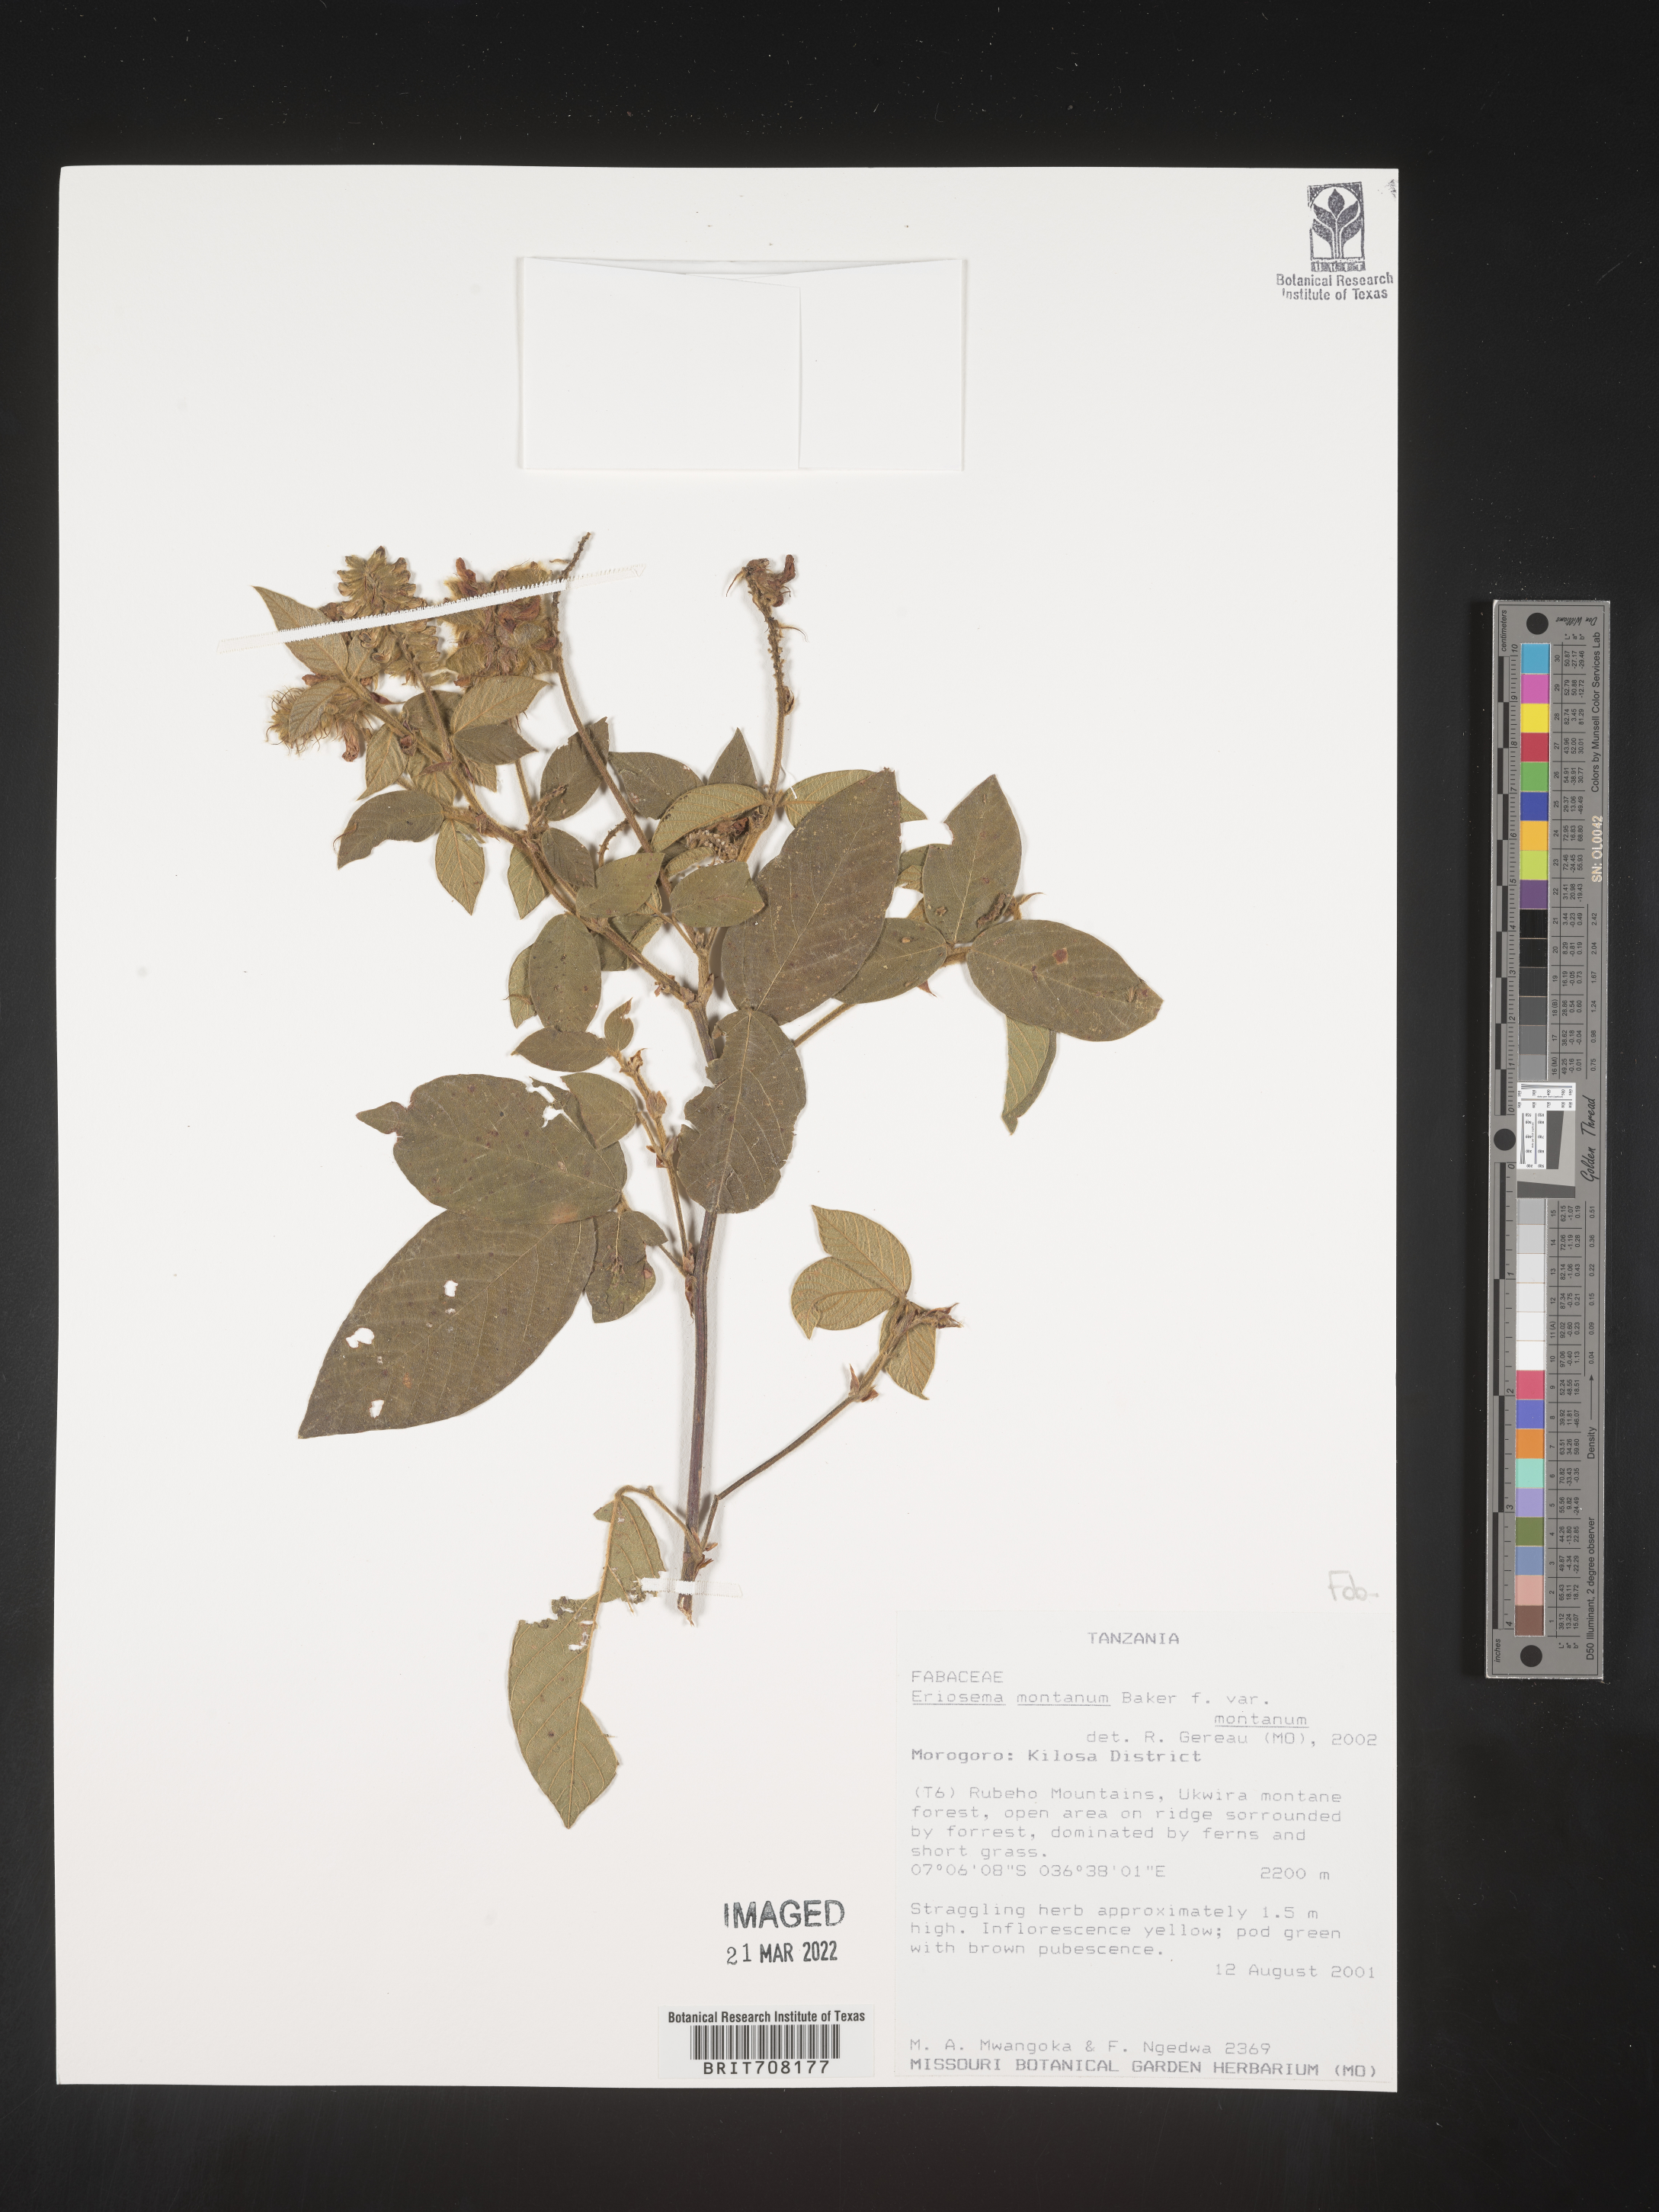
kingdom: Plantae
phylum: Tracheophyta
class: Magnoliopsida
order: Fabales
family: Fabaceae
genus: Eriosema
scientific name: Eriosema
